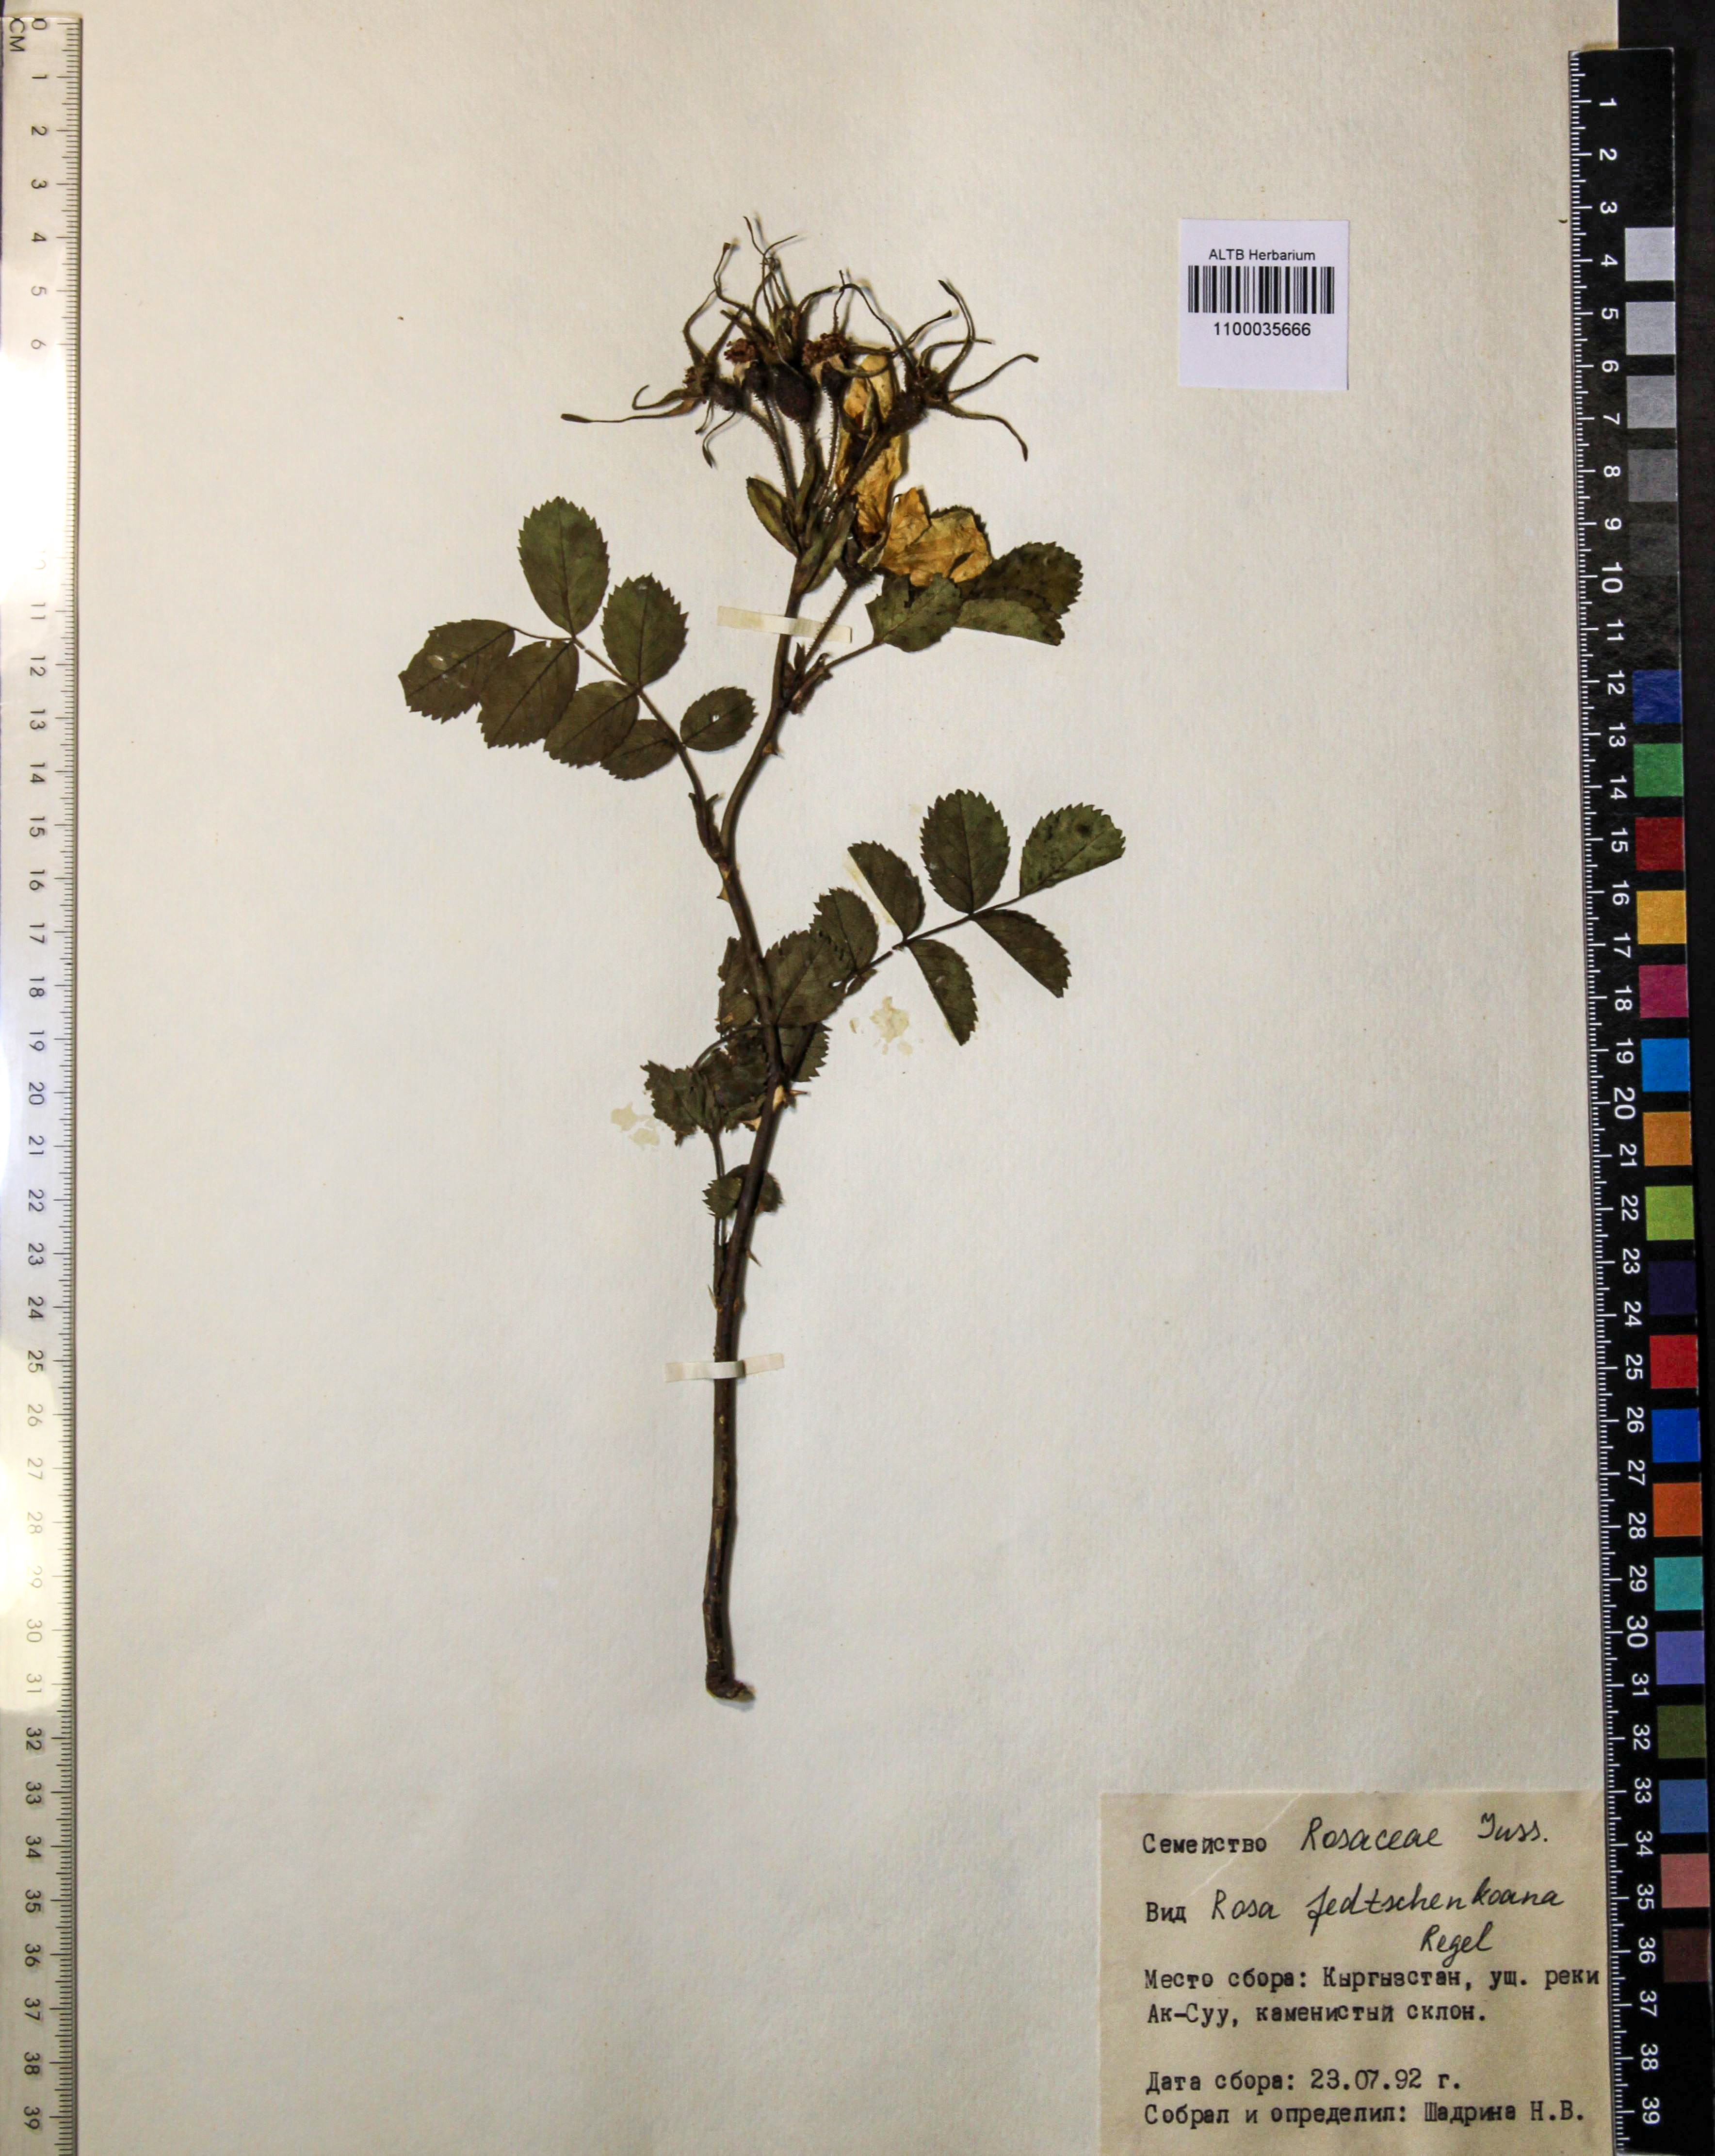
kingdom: Plantae
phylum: Tracheophyta
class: Magnoliopsida
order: Rosales
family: Rosaceae
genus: Rosa
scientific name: Rosa webbiana
